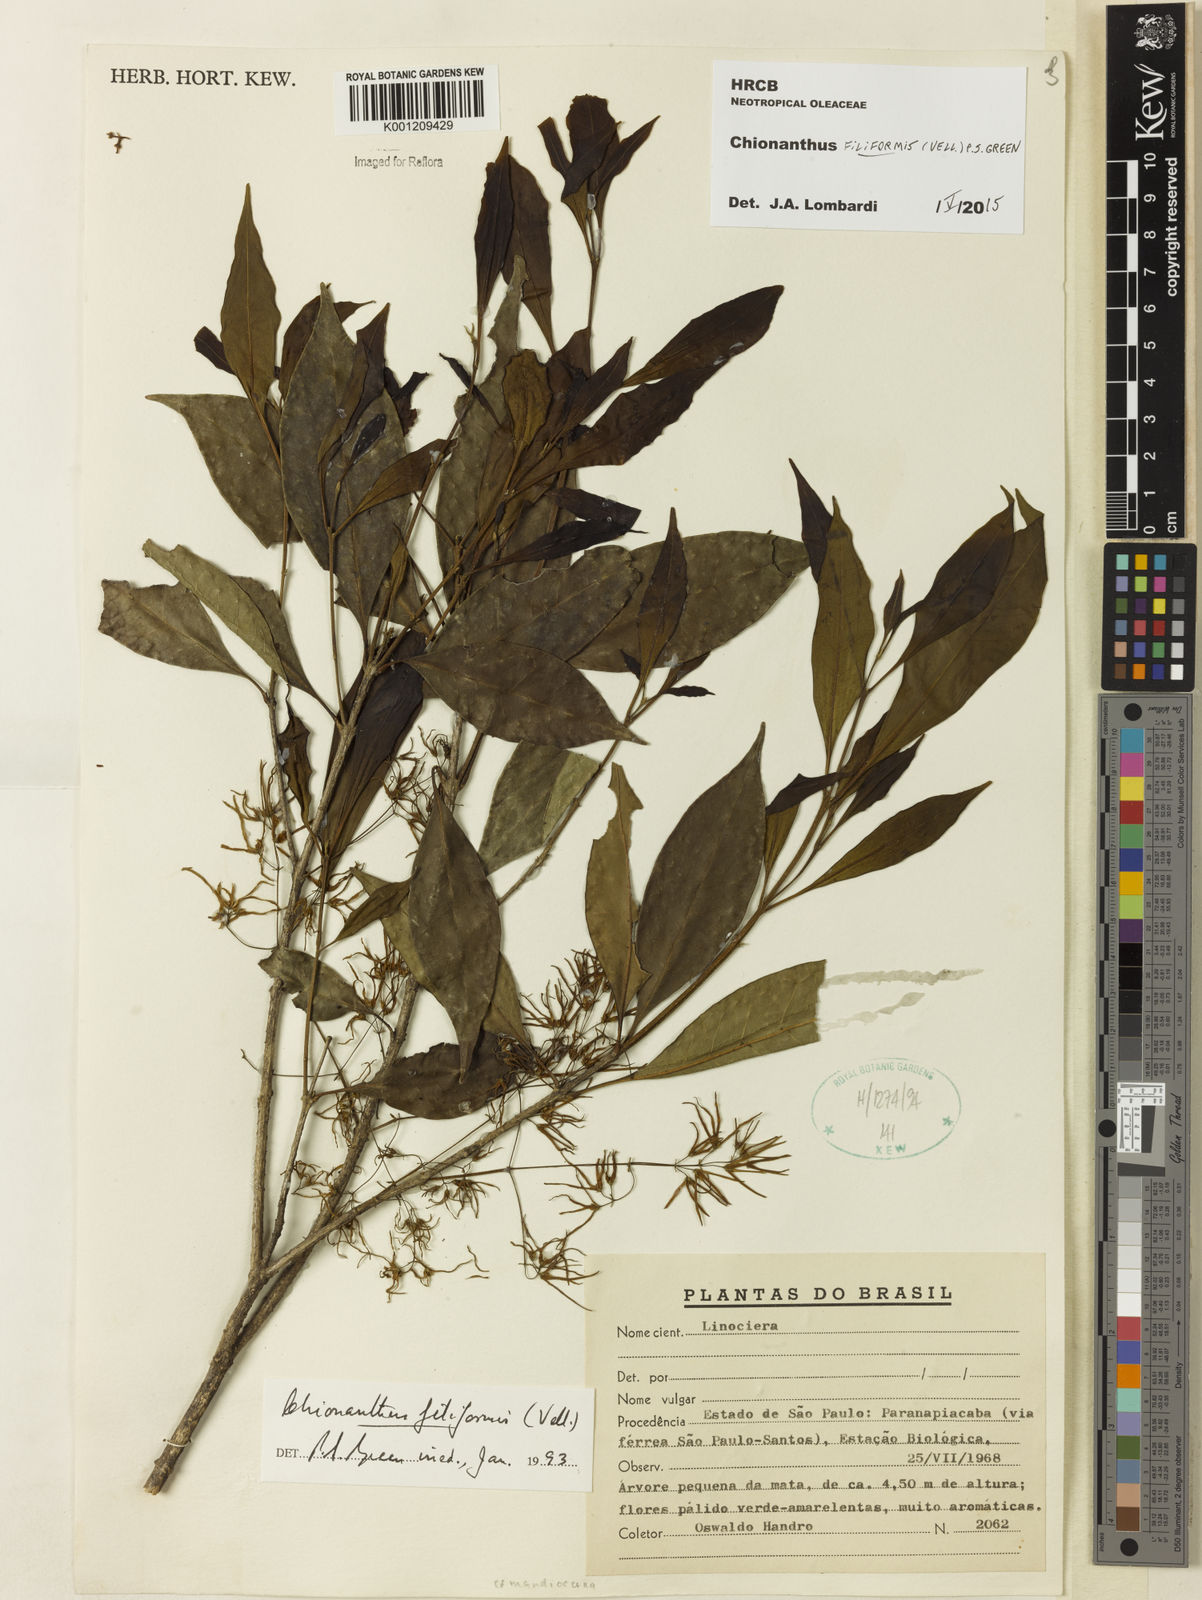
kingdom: Plantae
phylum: Tracheophyta
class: Magnoliopsida
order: Lamiales
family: Oleaceae
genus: Chionanthus
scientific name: Chionanthus filiformis
